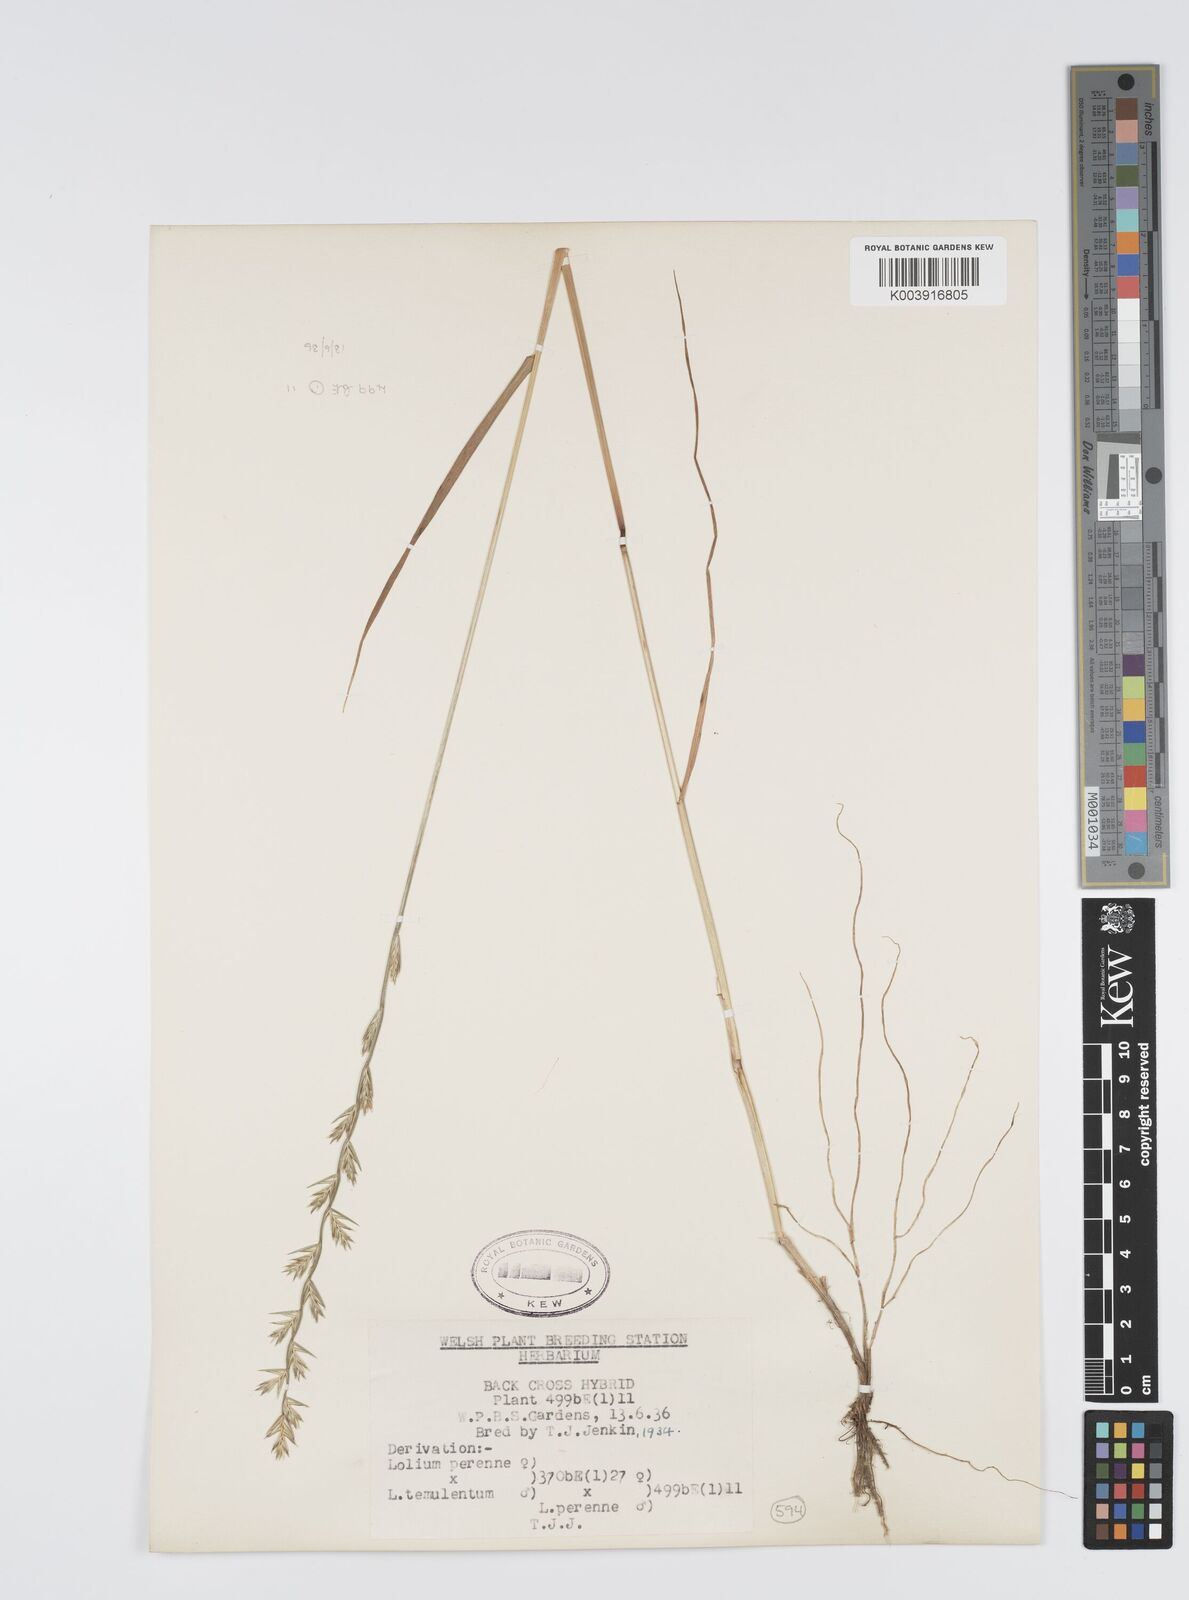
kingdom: Plantae
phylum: Tracheophyta
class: Liliopsida
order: Poales
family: Poaceae
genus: Lolium
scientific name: Lolium perenne
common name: Perennial ryegrass
